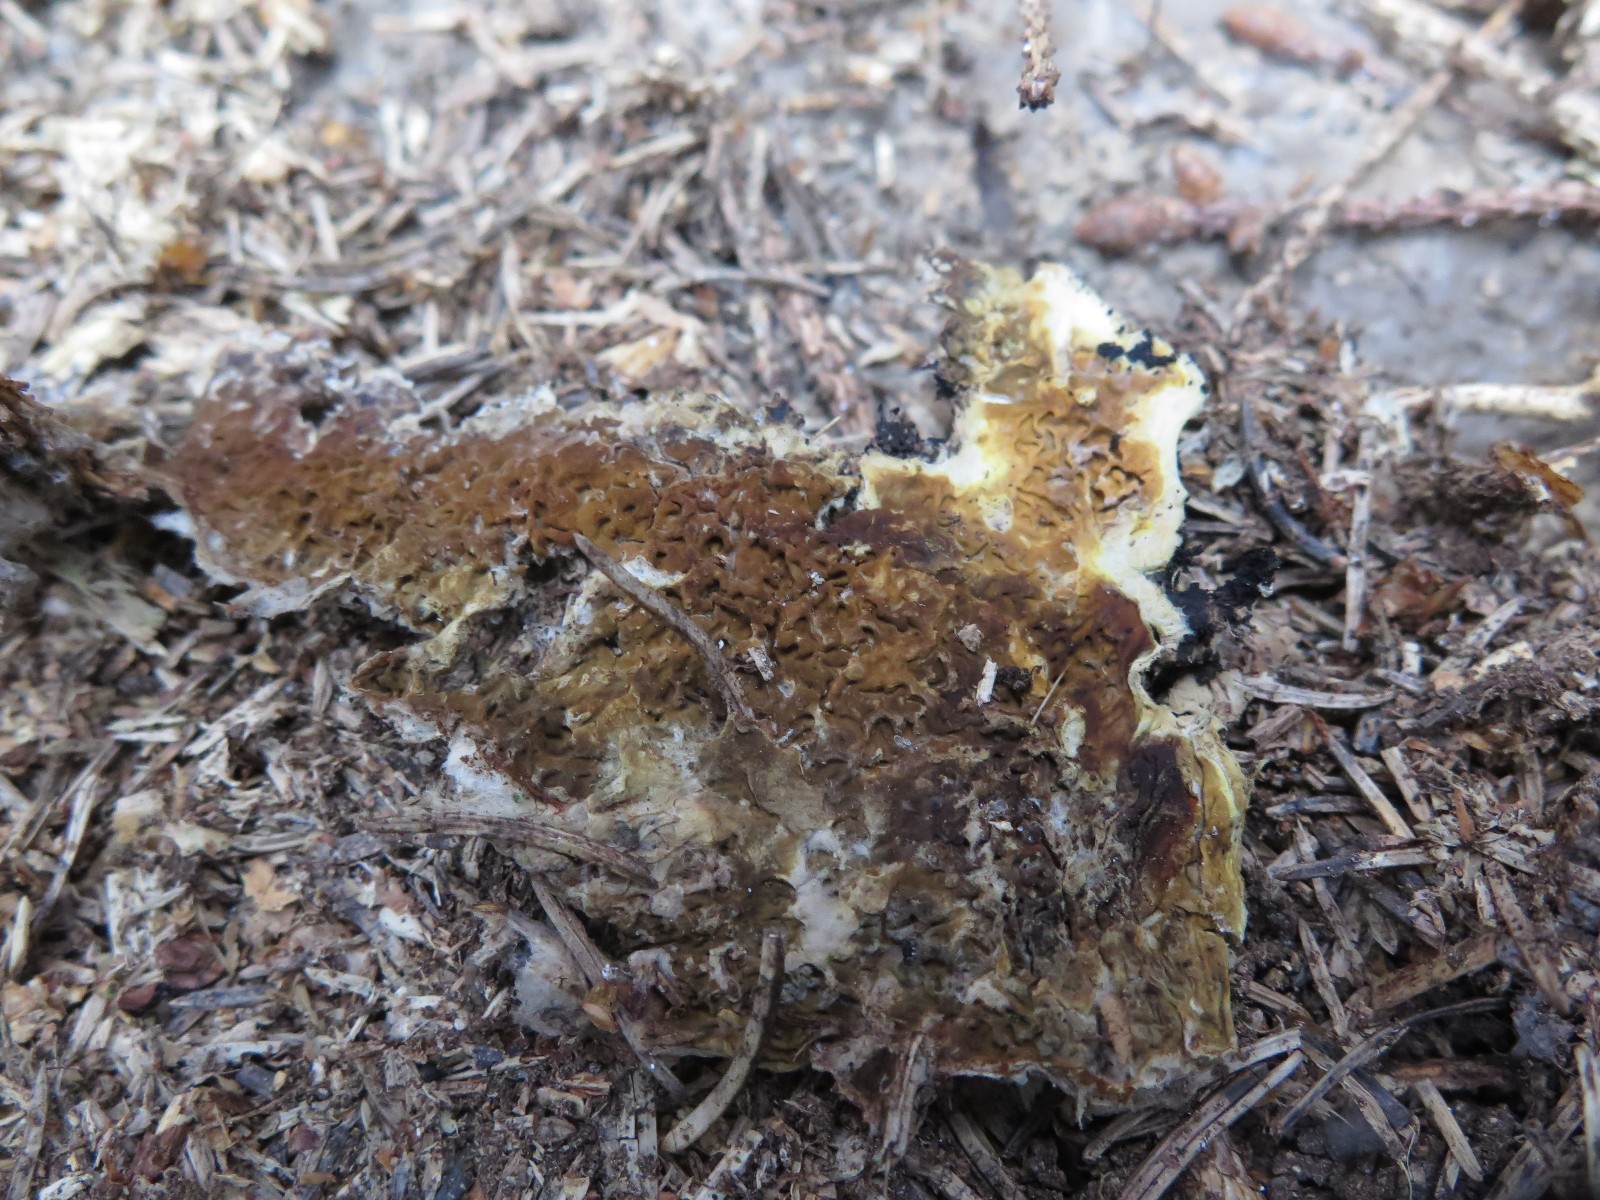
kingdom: Fungi
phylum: Basidiomycota
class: Agaricomycetes
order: Boletales
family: Serpulaceae
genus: Serpula
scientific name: Serpula himantioides
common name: tyndkødet hussvamp
